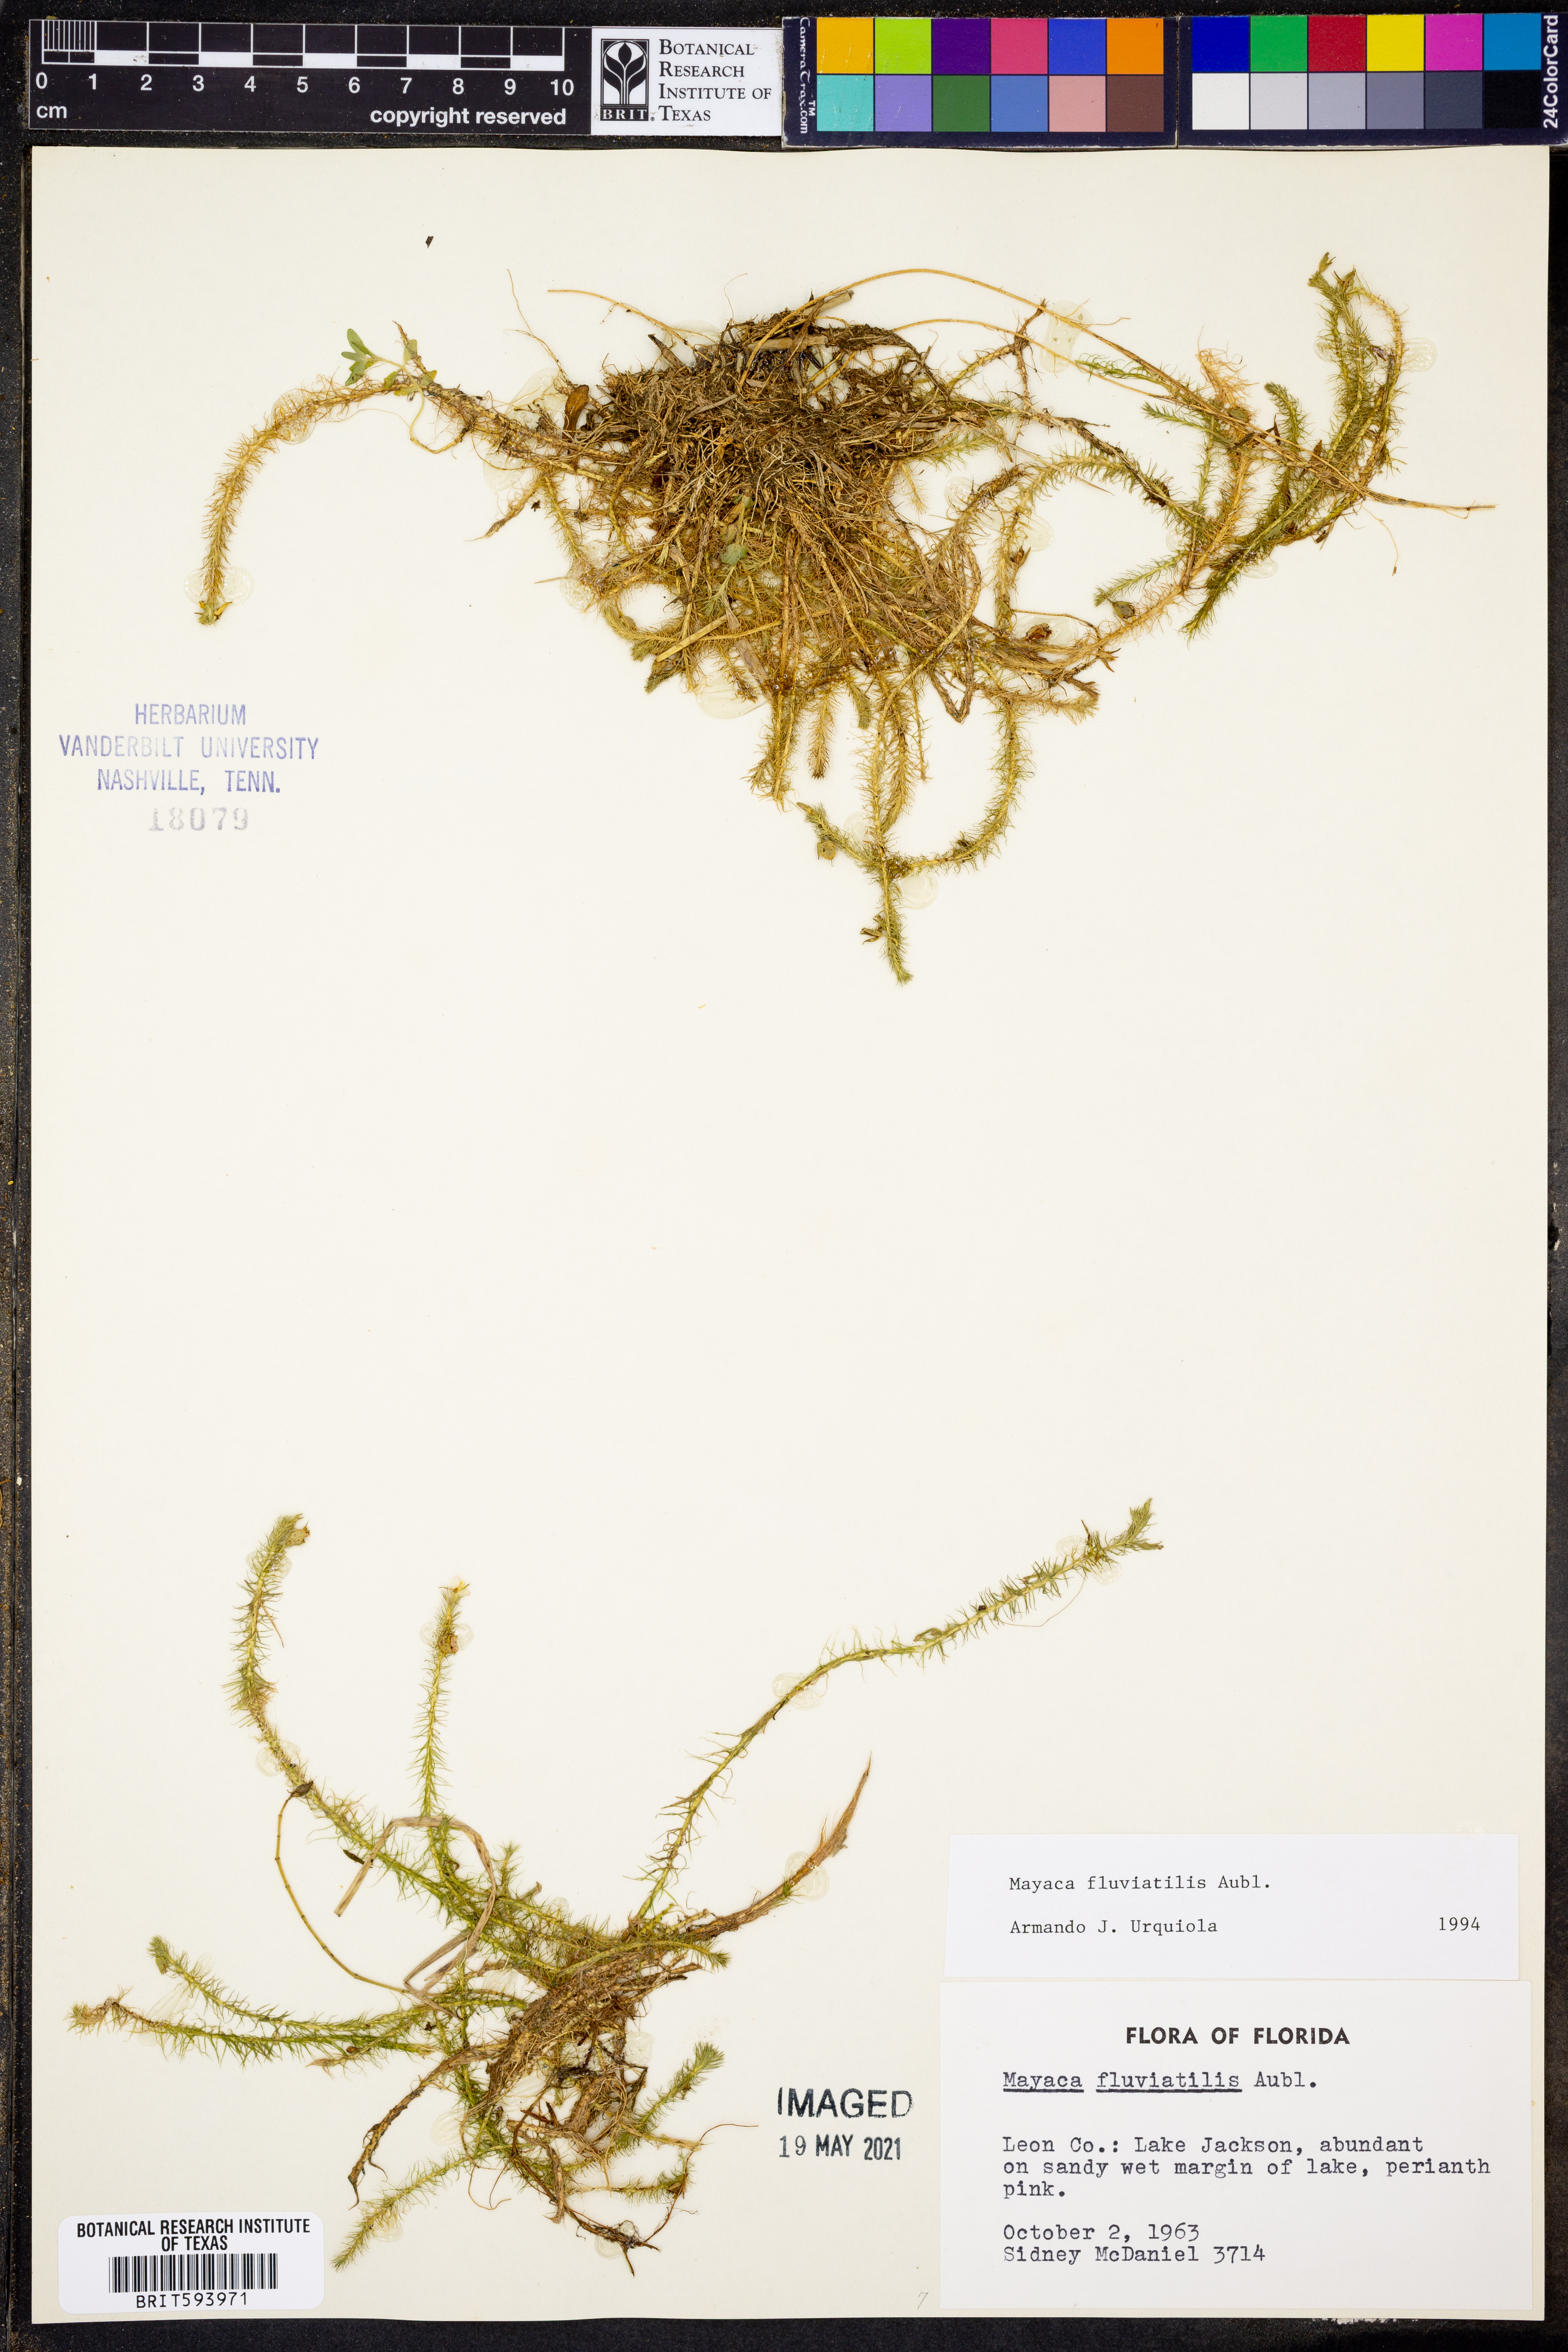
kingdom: Plantae
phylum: Tracheophyta
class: Liliopsida
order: Poales
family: Mayacaceae
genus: Mayaca
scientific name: Mayaca fluviatilis
